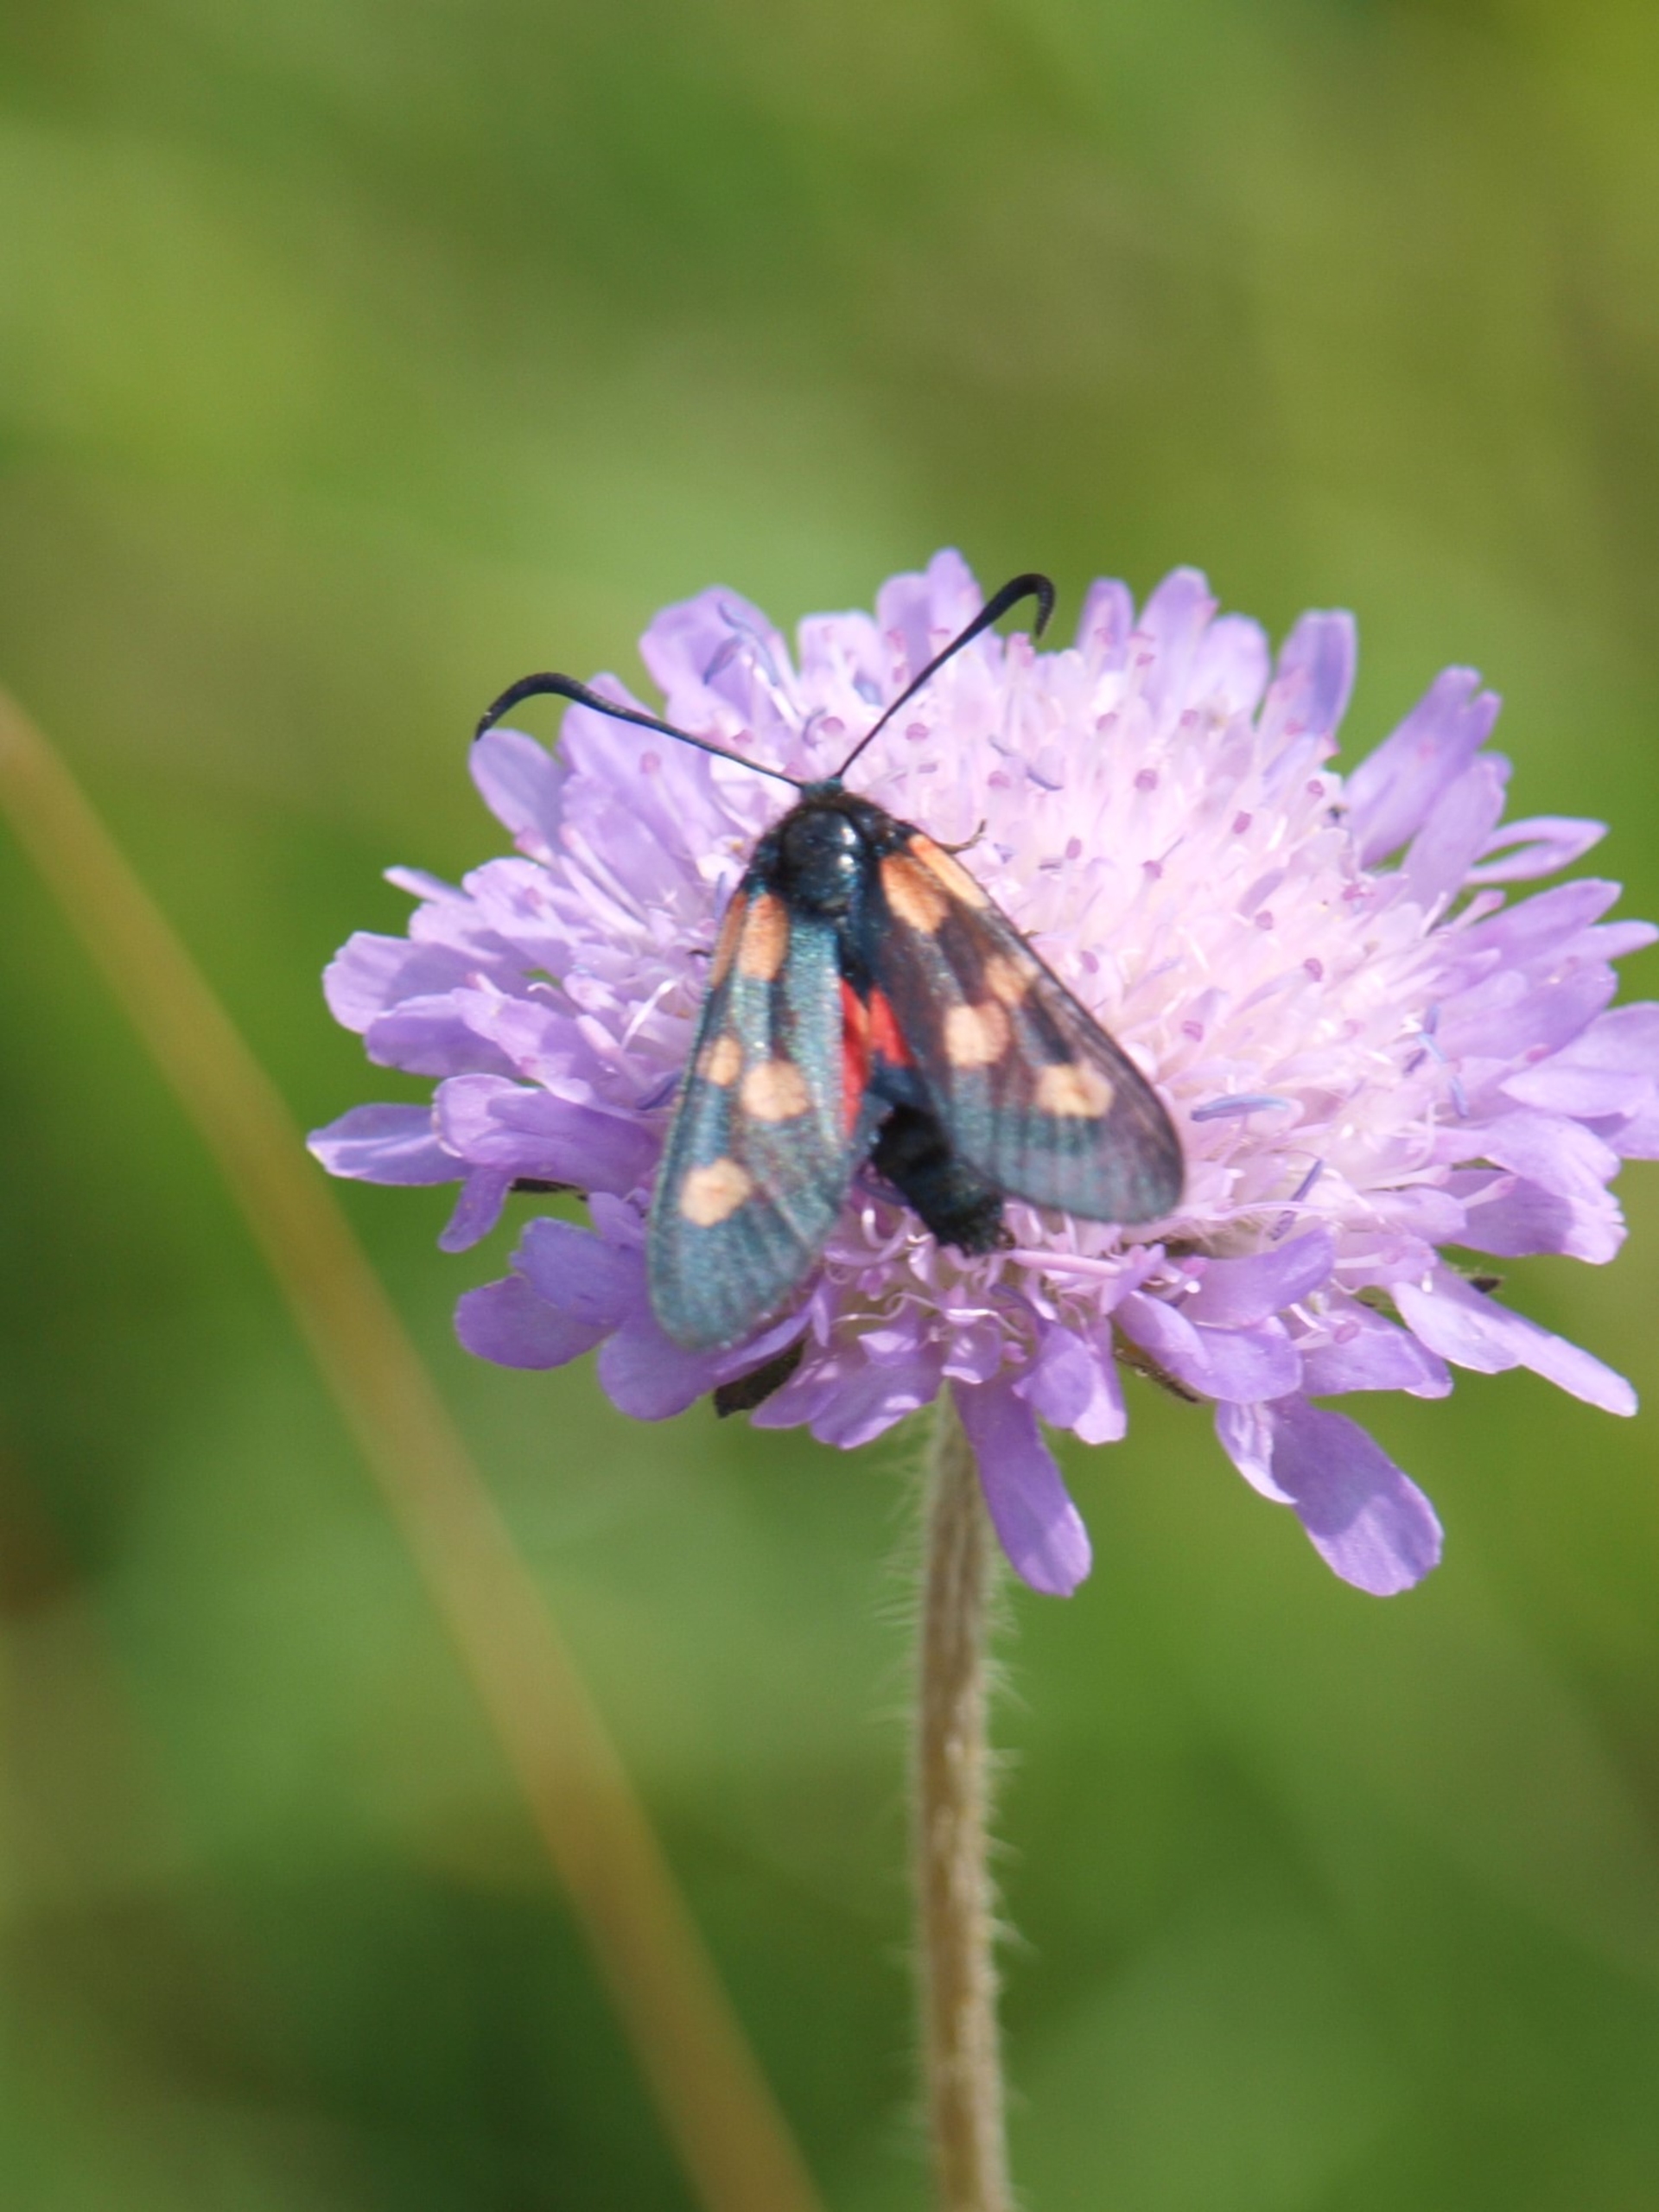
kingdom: Animalia
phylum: Arthropoda
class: Insecta
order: Lepidoptera
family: Zygaenidae
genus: Zygaena
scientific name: Zygaena lonicerae
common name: Femplettet køllesværmer
